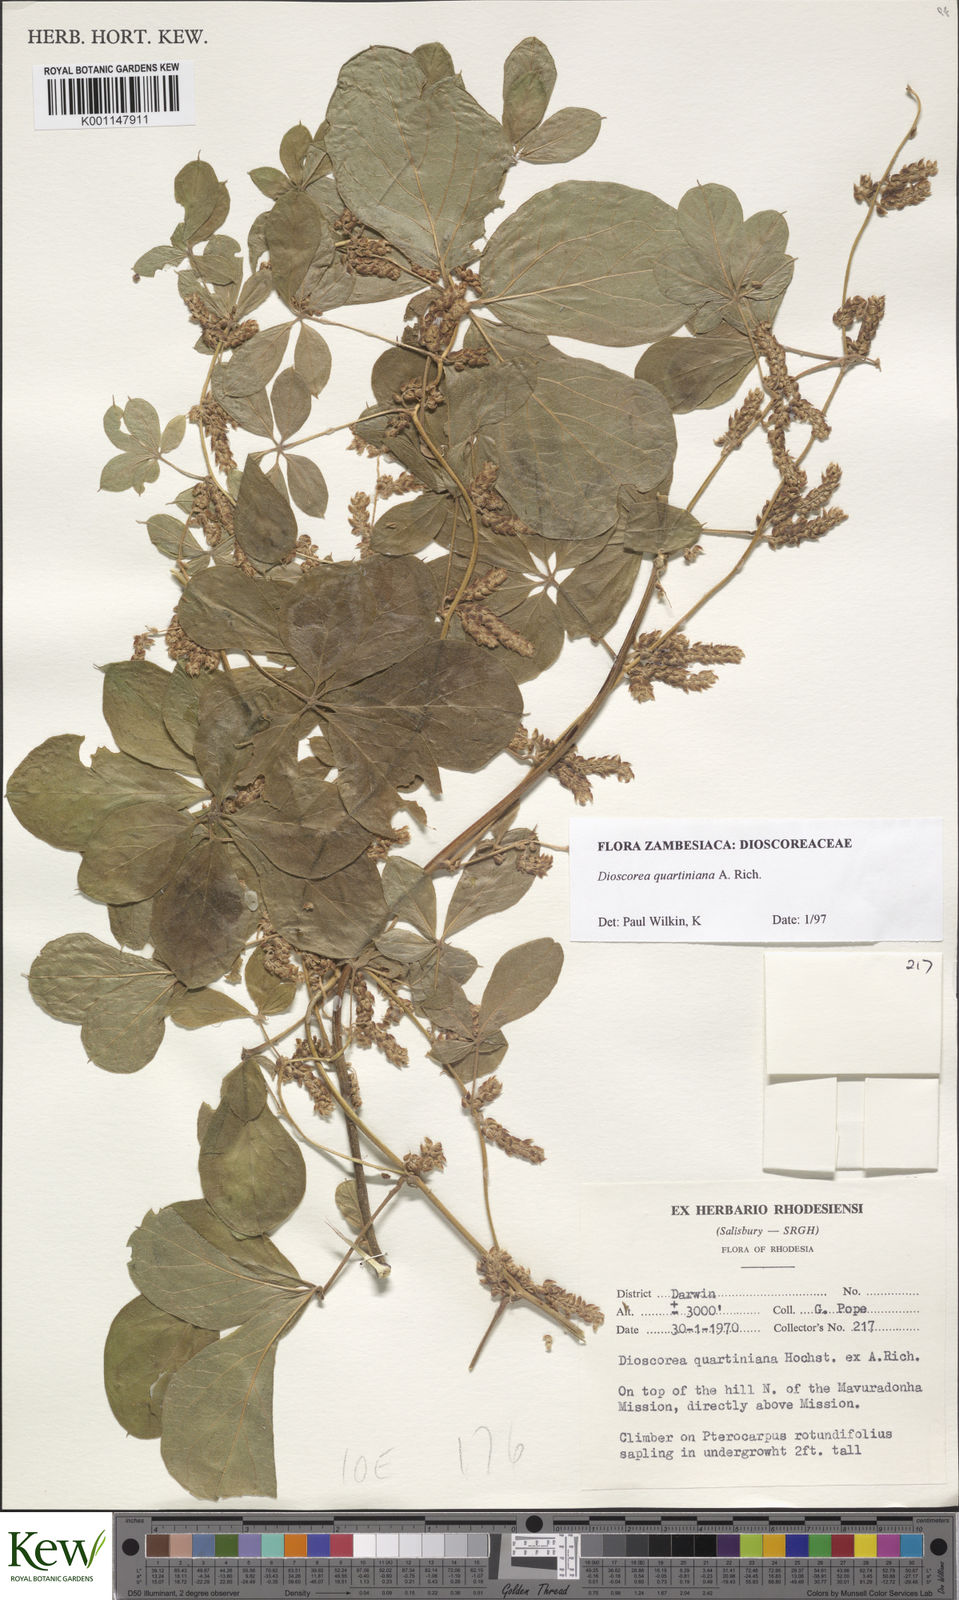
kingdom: Plantae
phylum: Tracheophyta
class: Liliopsida
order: Dioscoreales
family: Dioscoreaceae
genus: Dioscorea
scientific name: Dioscorea quartiniana
